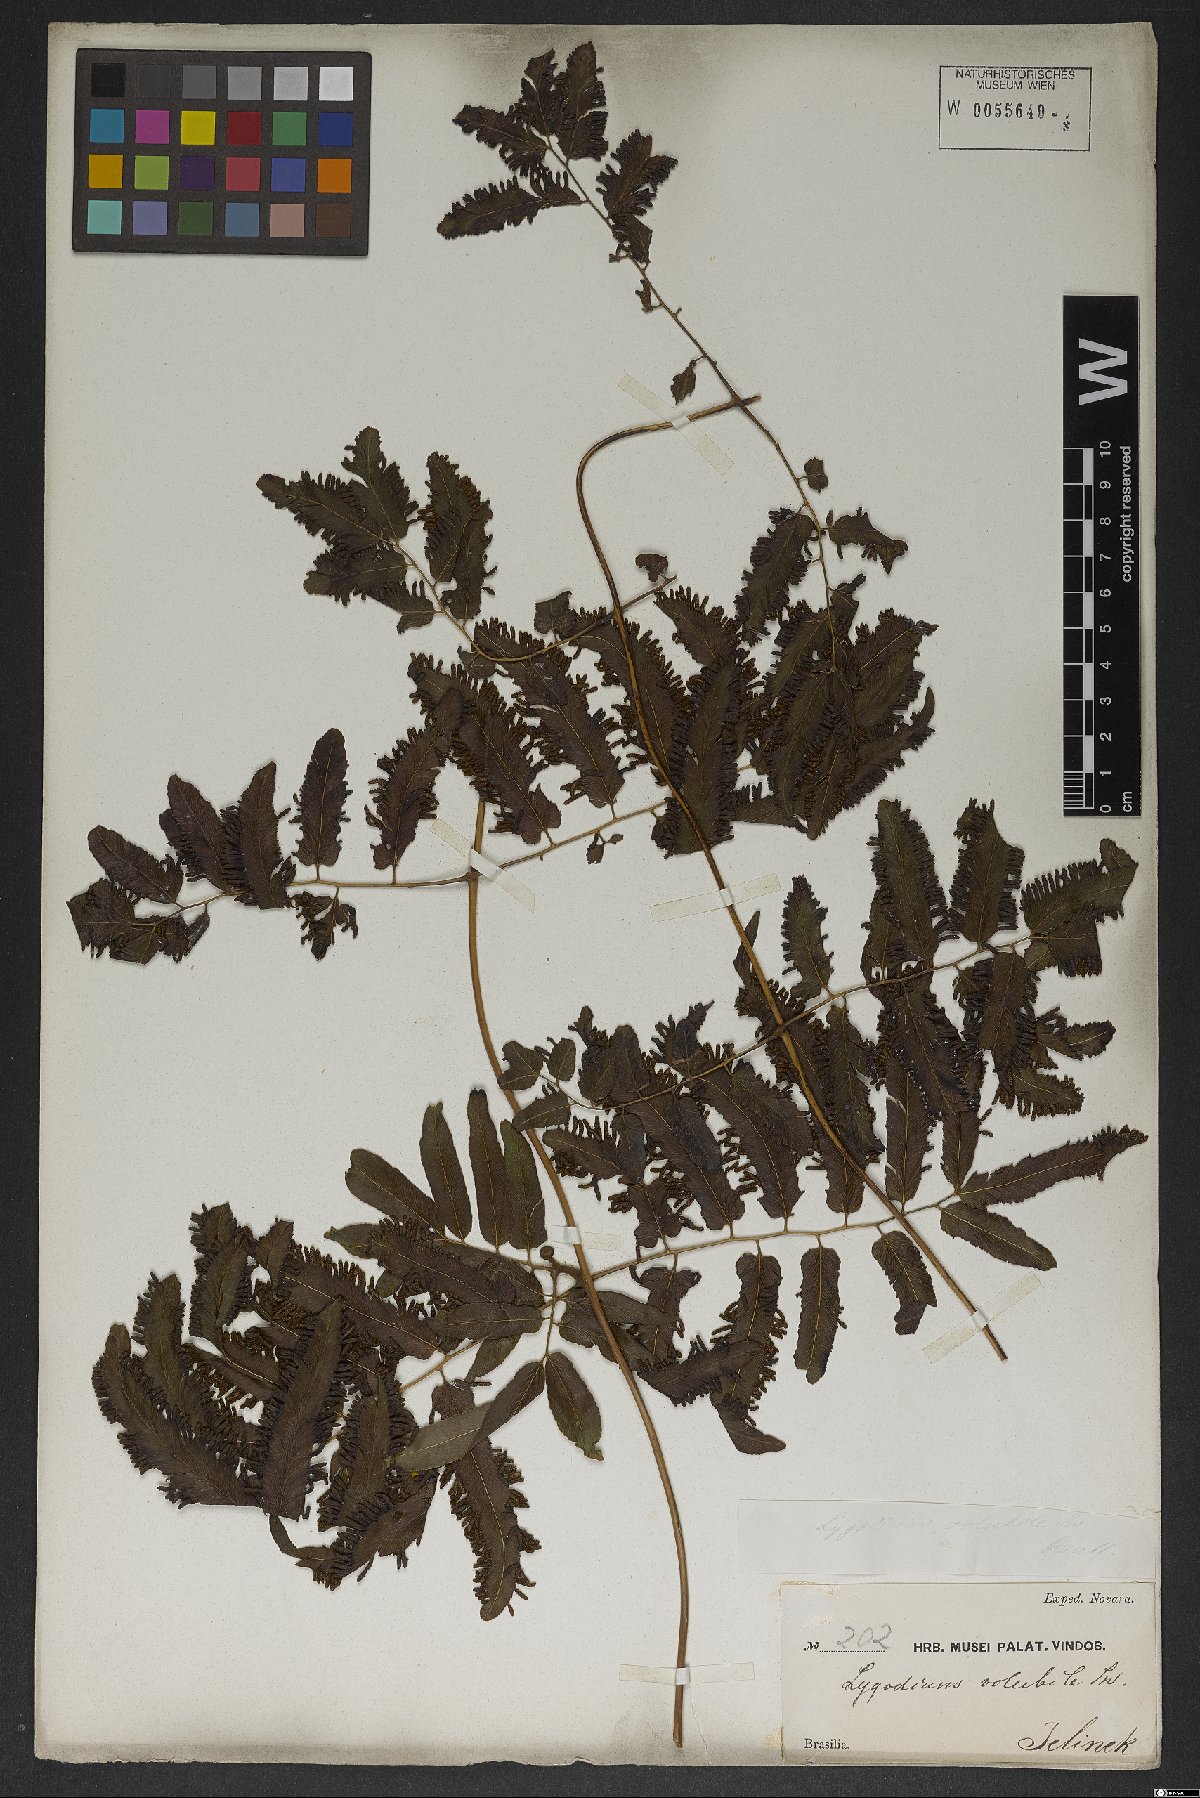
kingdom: Plantae
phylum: Tracheophyta
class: Polypodiopsida
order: Schizaeales
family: Lygodiaceae
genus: Lygodium
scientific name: Lygodium volubile
